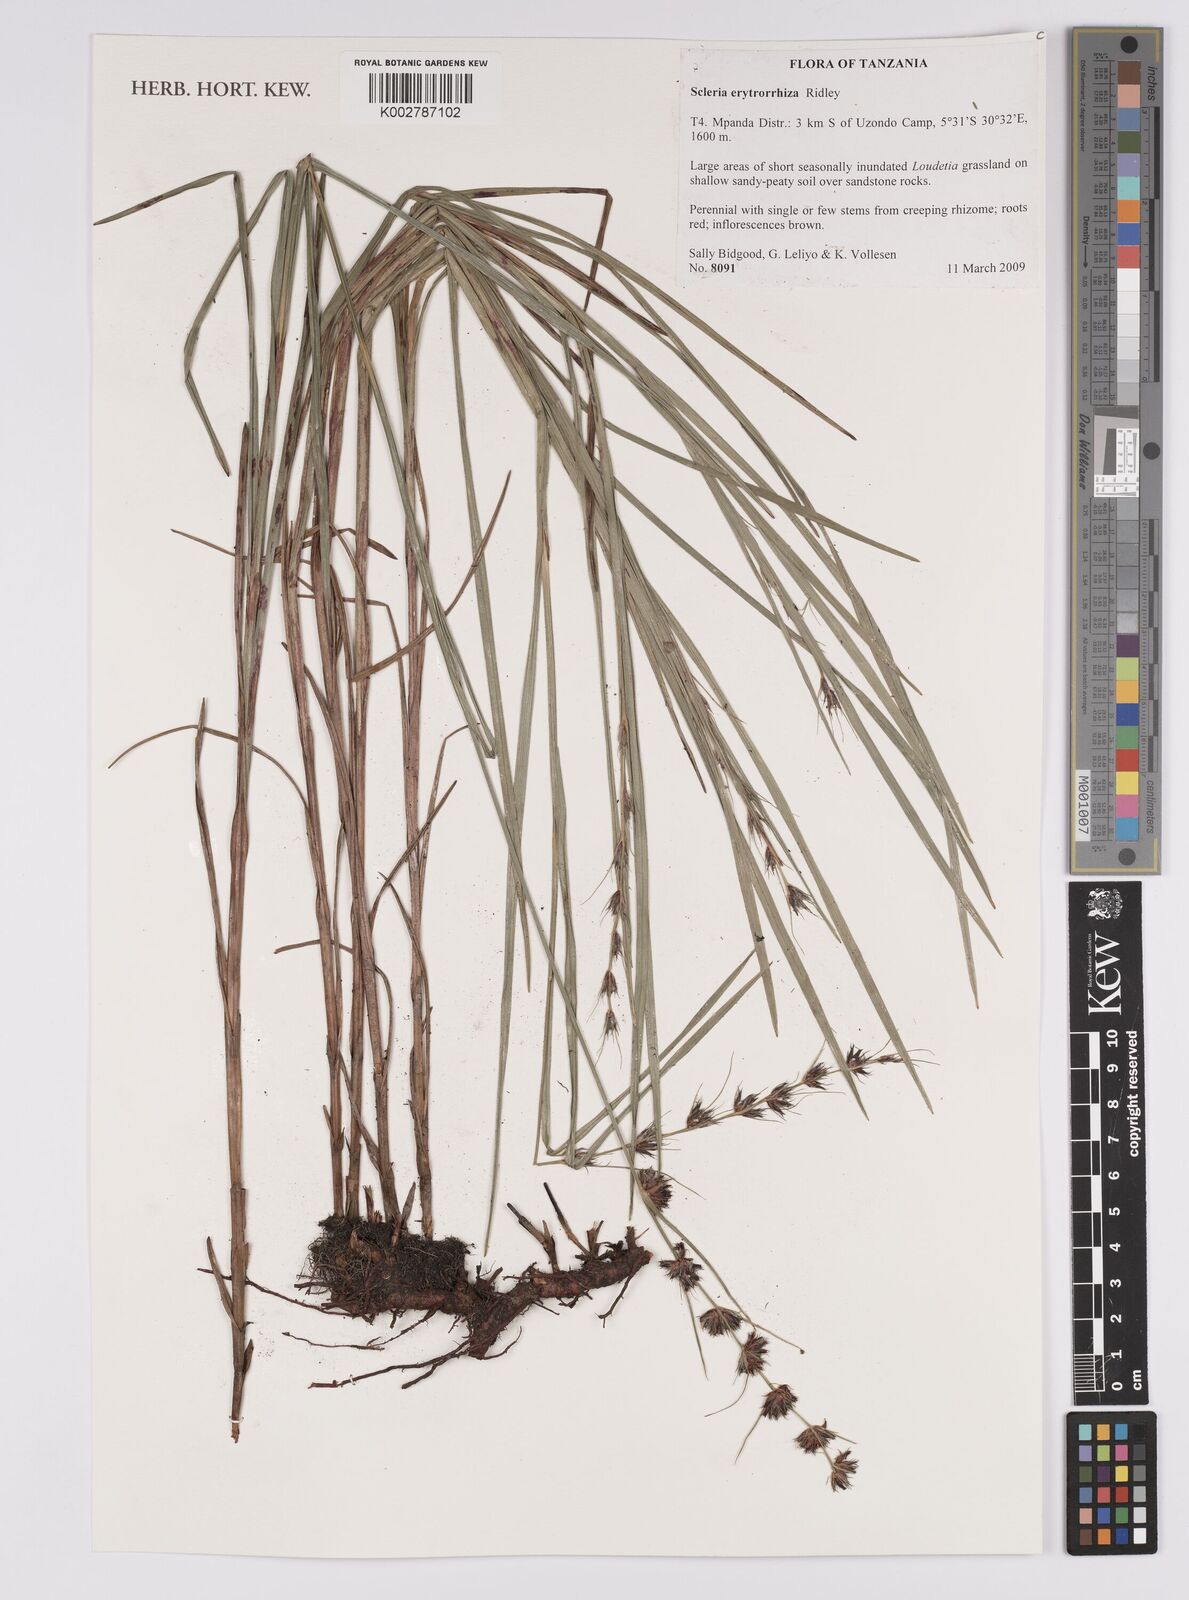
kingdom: Plantae
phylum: Tracheophyta
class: Liliopsida
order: Poales
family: Cyperaceae
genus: Scleria
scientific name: Scleria erythrorrhiza
